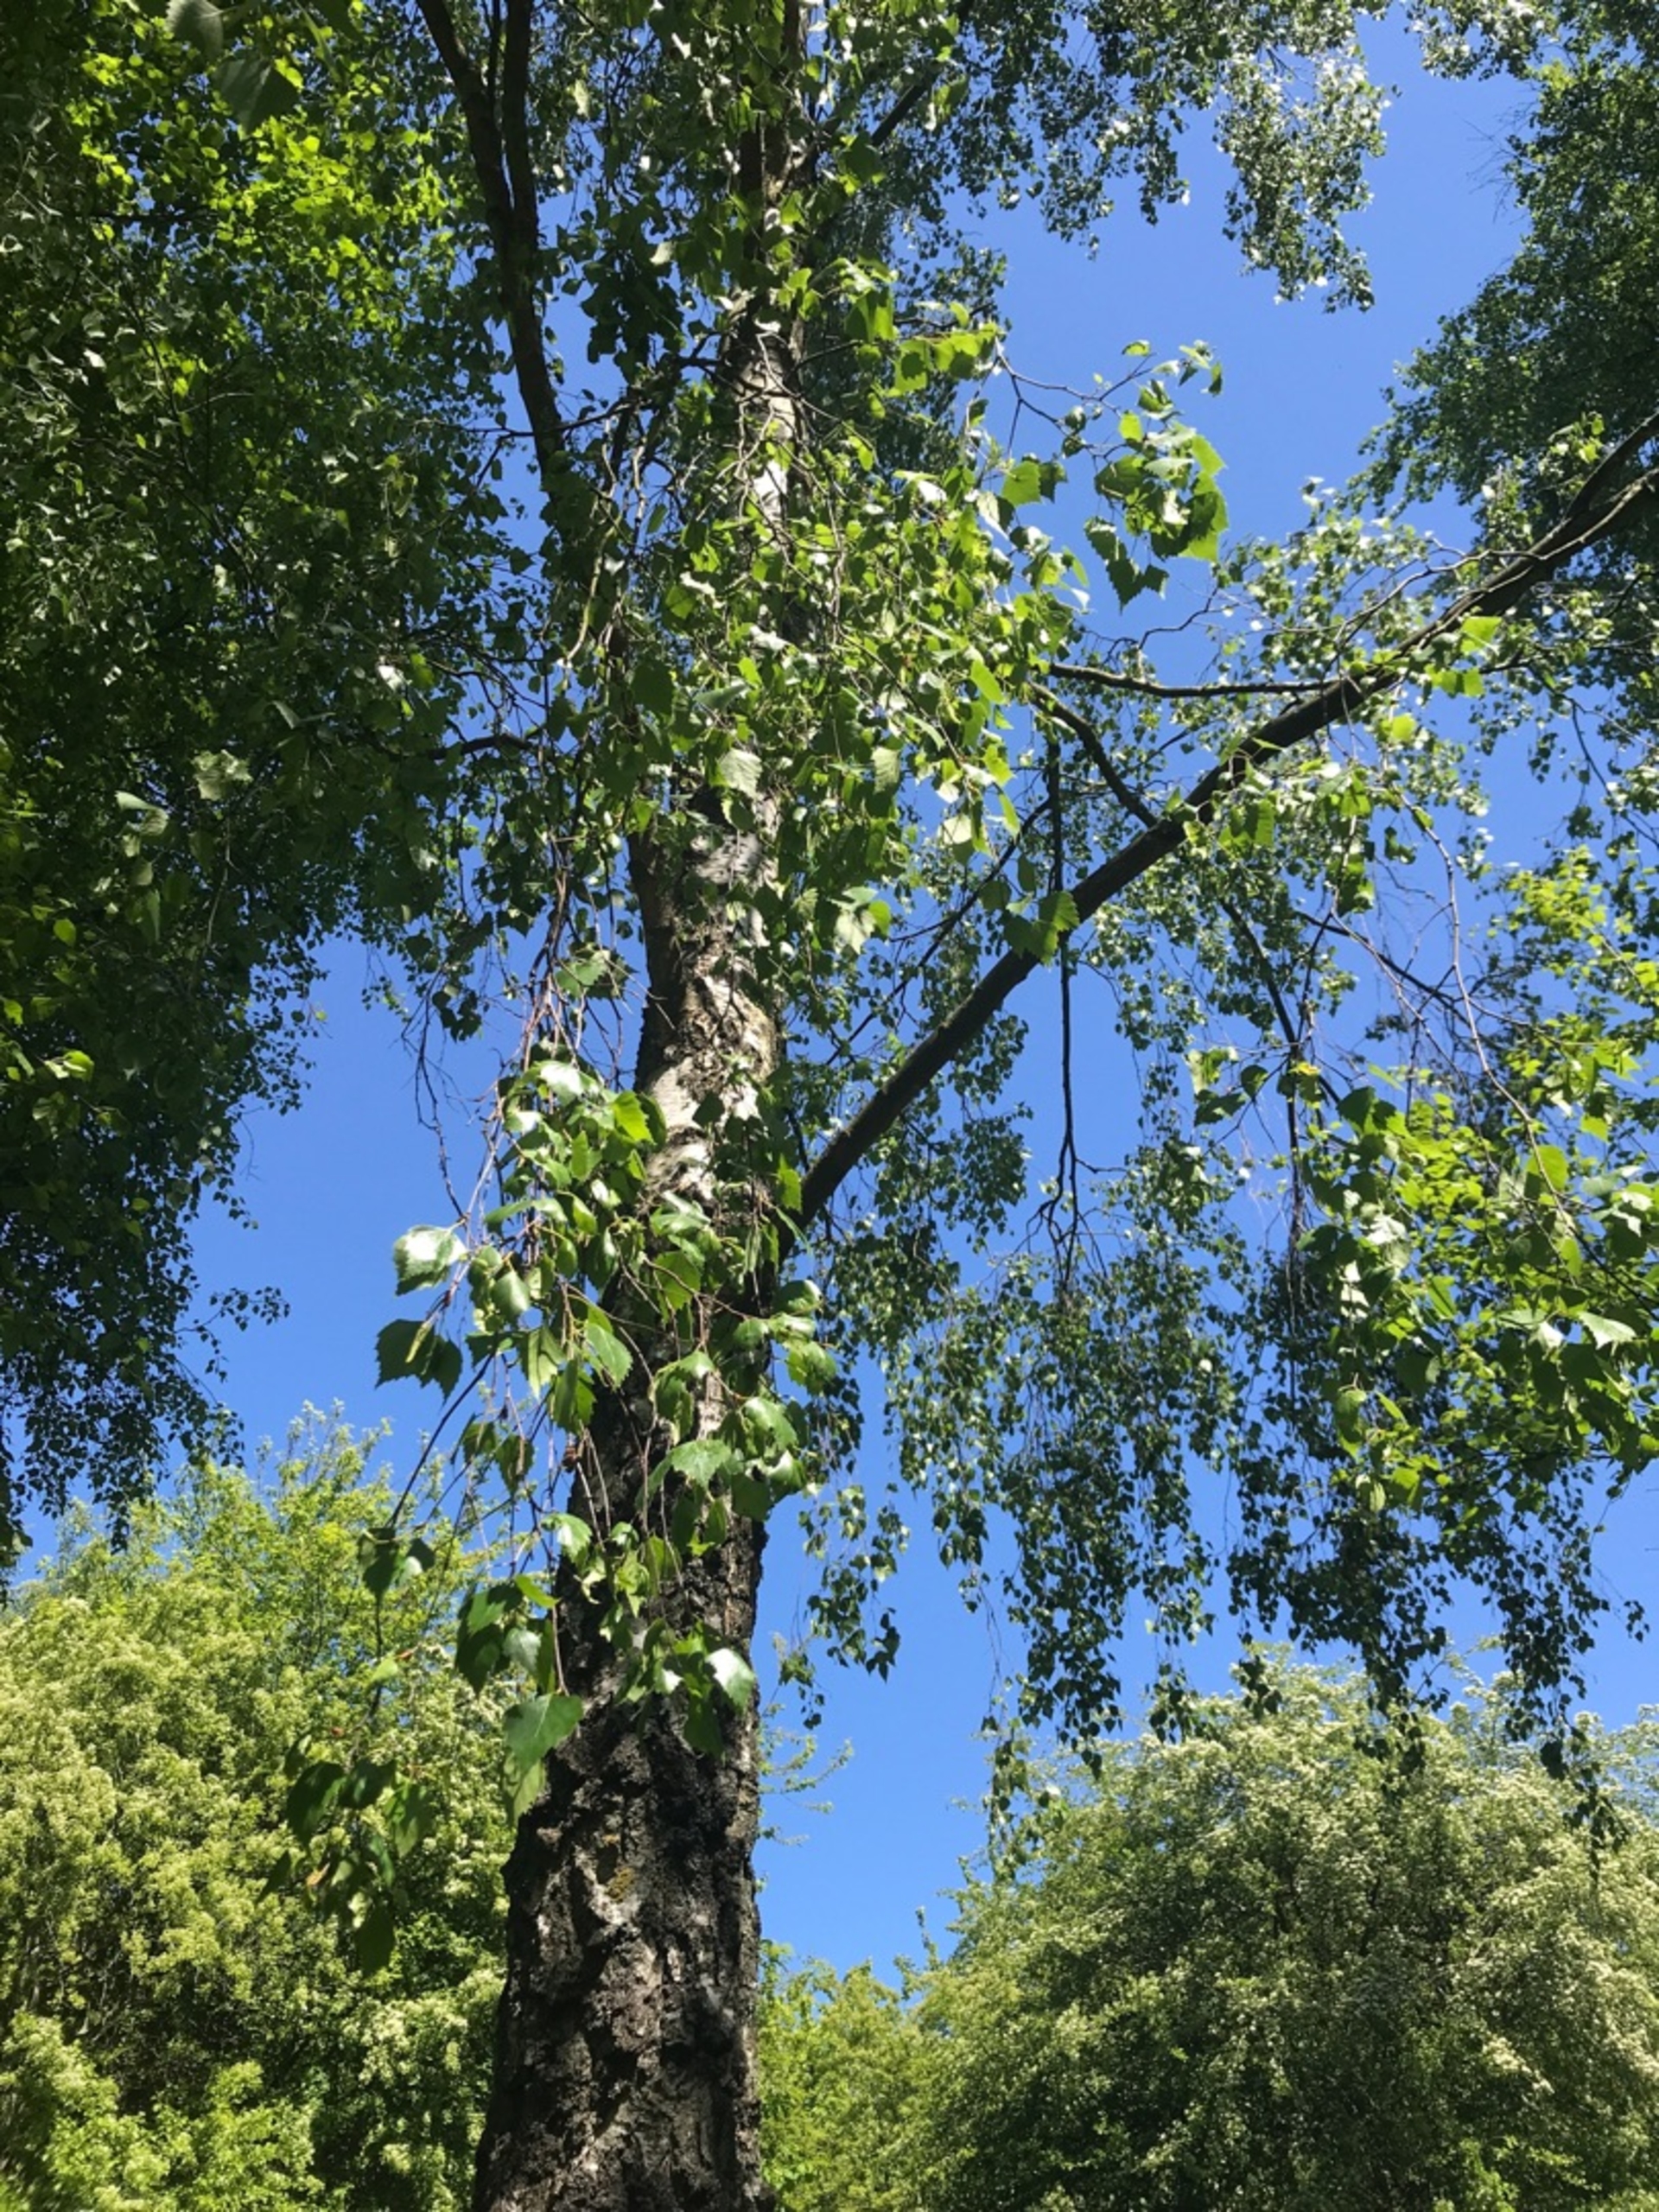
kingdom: Plantae
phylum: Tracheophyta
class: Magnoliopsida
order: Fagales
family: Betulaceae
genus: Betula
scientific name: Betula pendula
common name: Vorte-birk
